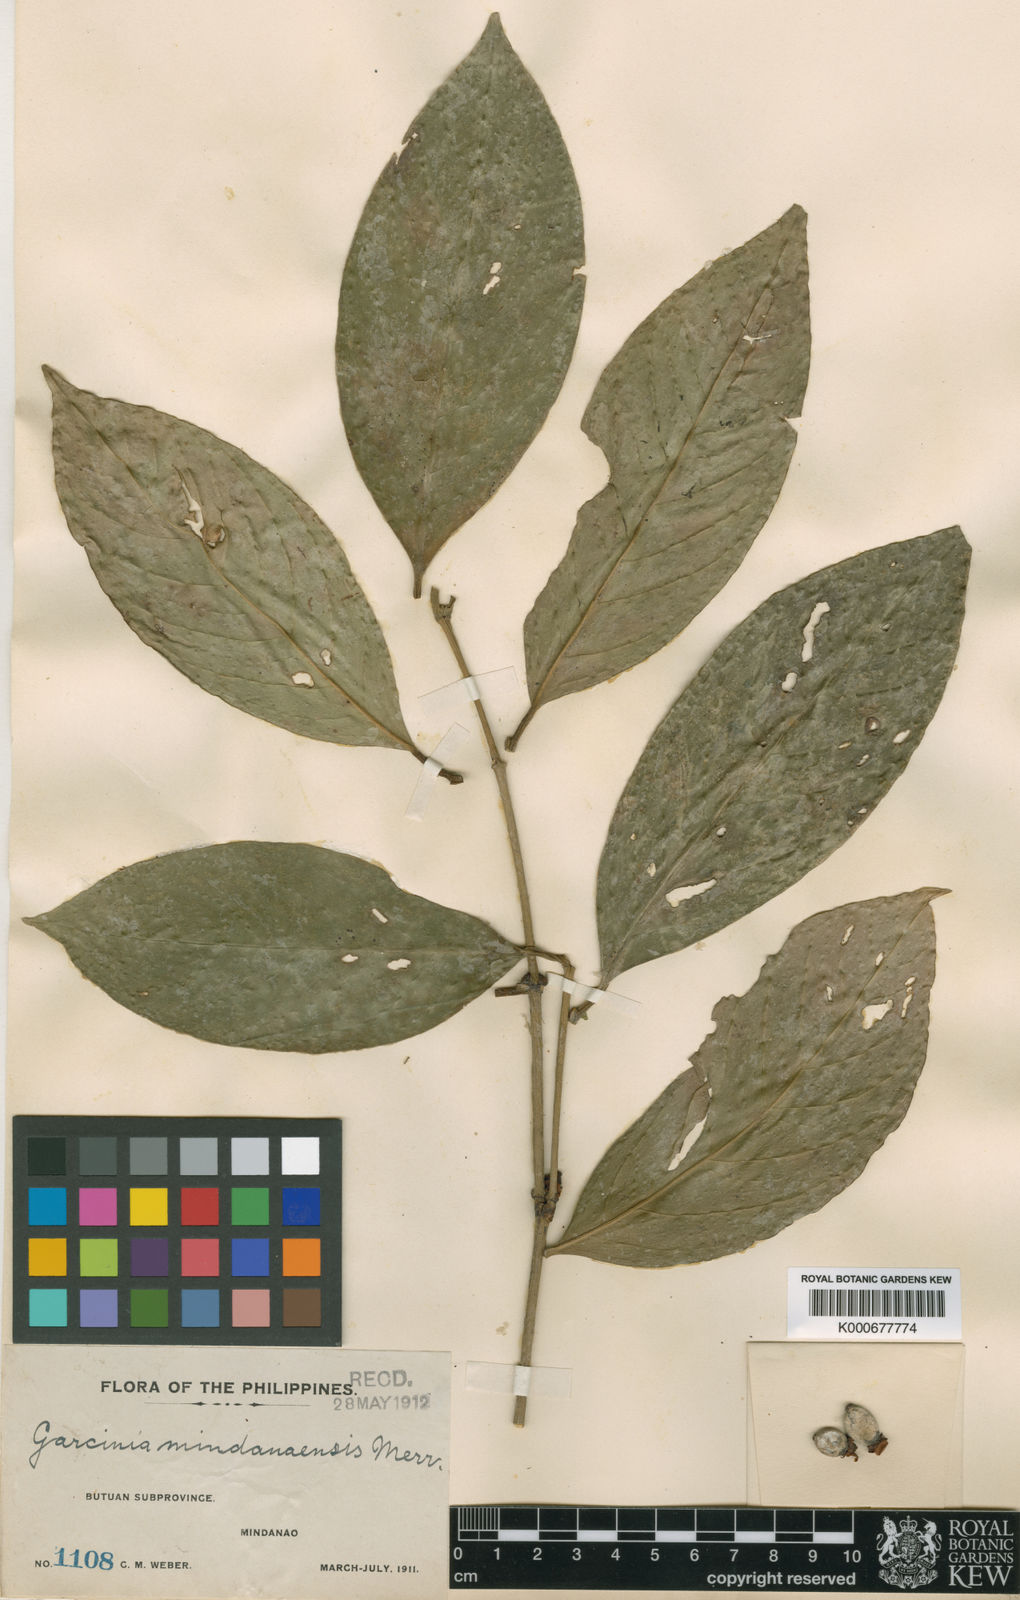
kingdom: Plantae
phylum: Tracheophyta
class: Magnoliopsida
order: Malpighiales
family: Clusiaceae
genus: Garcinia
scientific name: Garcinia mindanaensis
